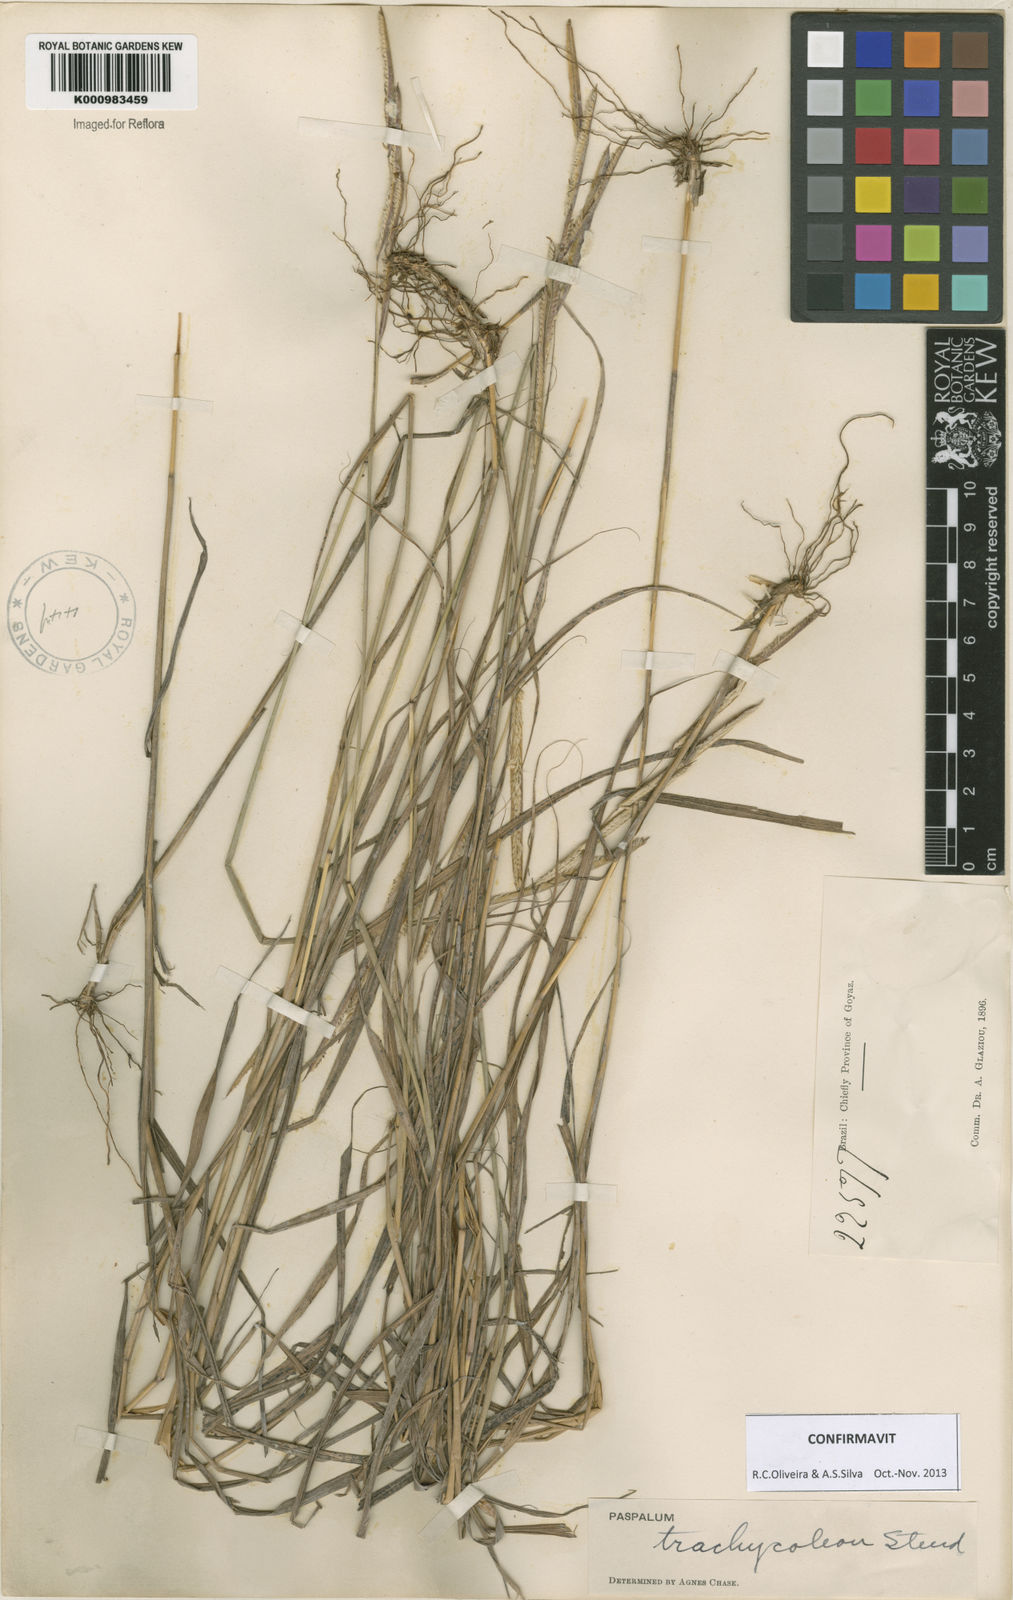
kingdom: Plantae
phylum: Tracheophyta
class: Liliopsida
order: Poales
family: Poaceae
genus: Paspalum
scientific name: Paspalum trachycoleon
